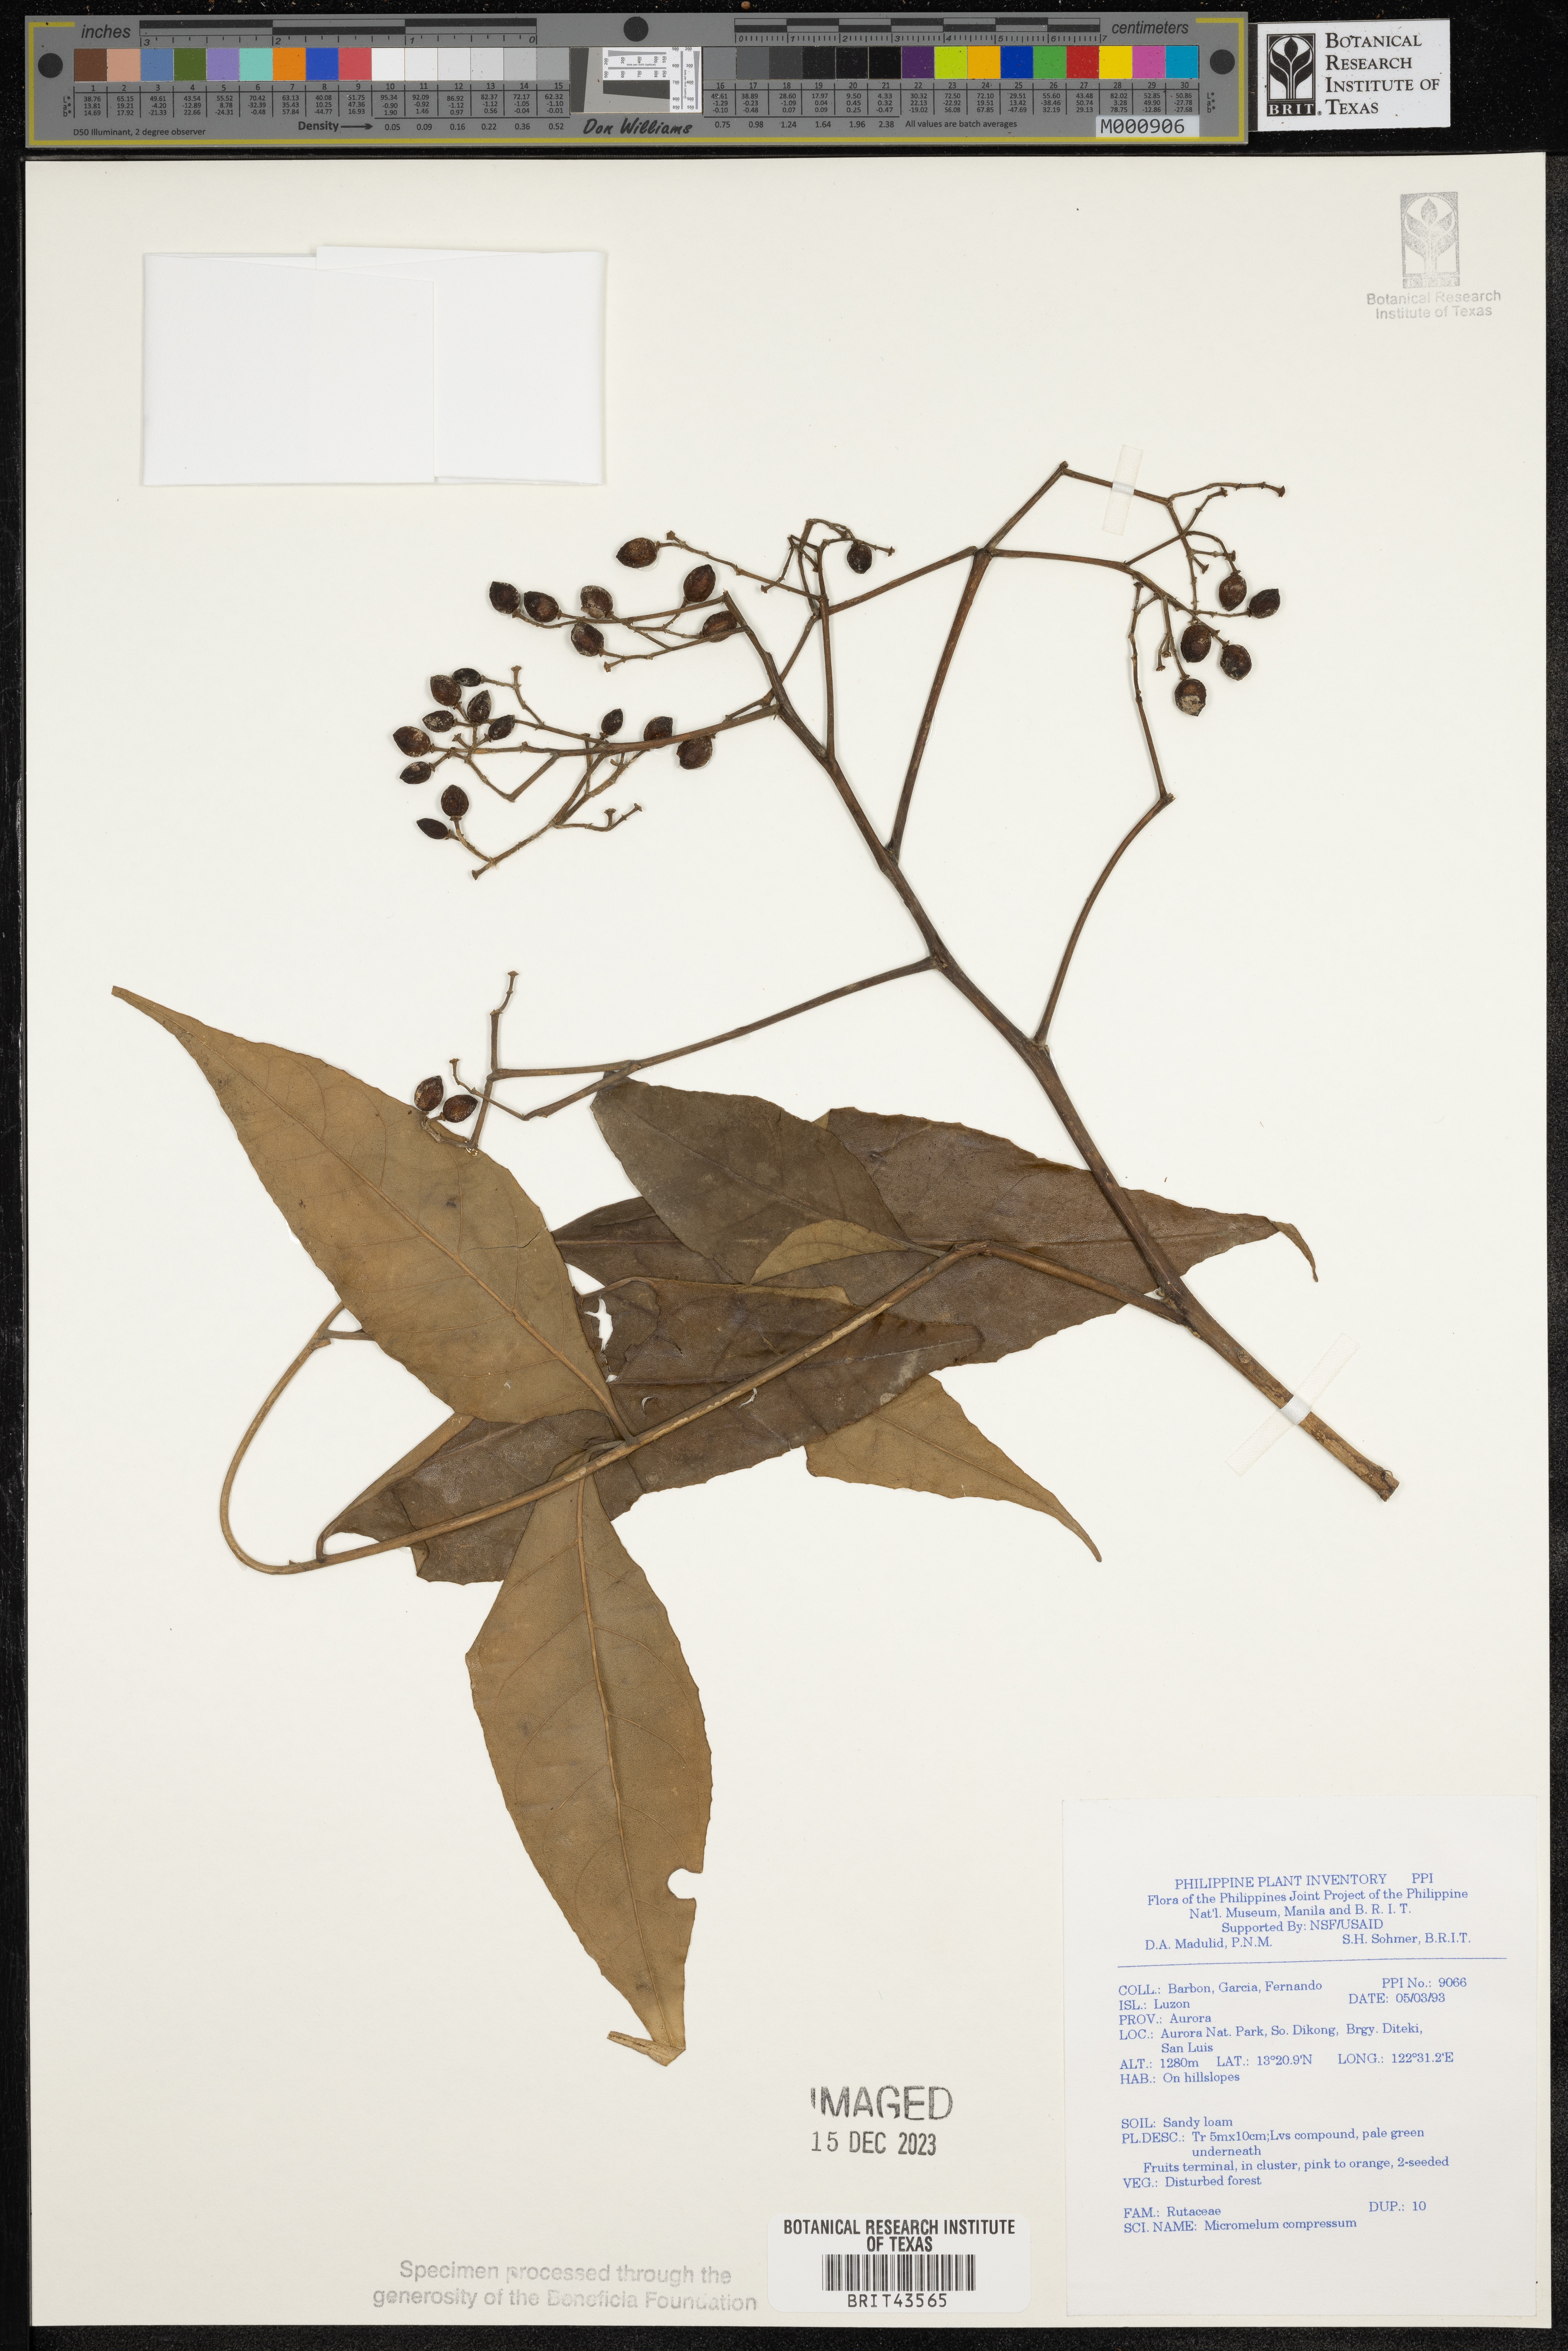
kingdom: Plantae
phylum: Tracheophyta
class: Magnoliopsida
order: Sapindales
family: Rutaceae
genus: Micromelum
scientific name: Micromelum compressum
